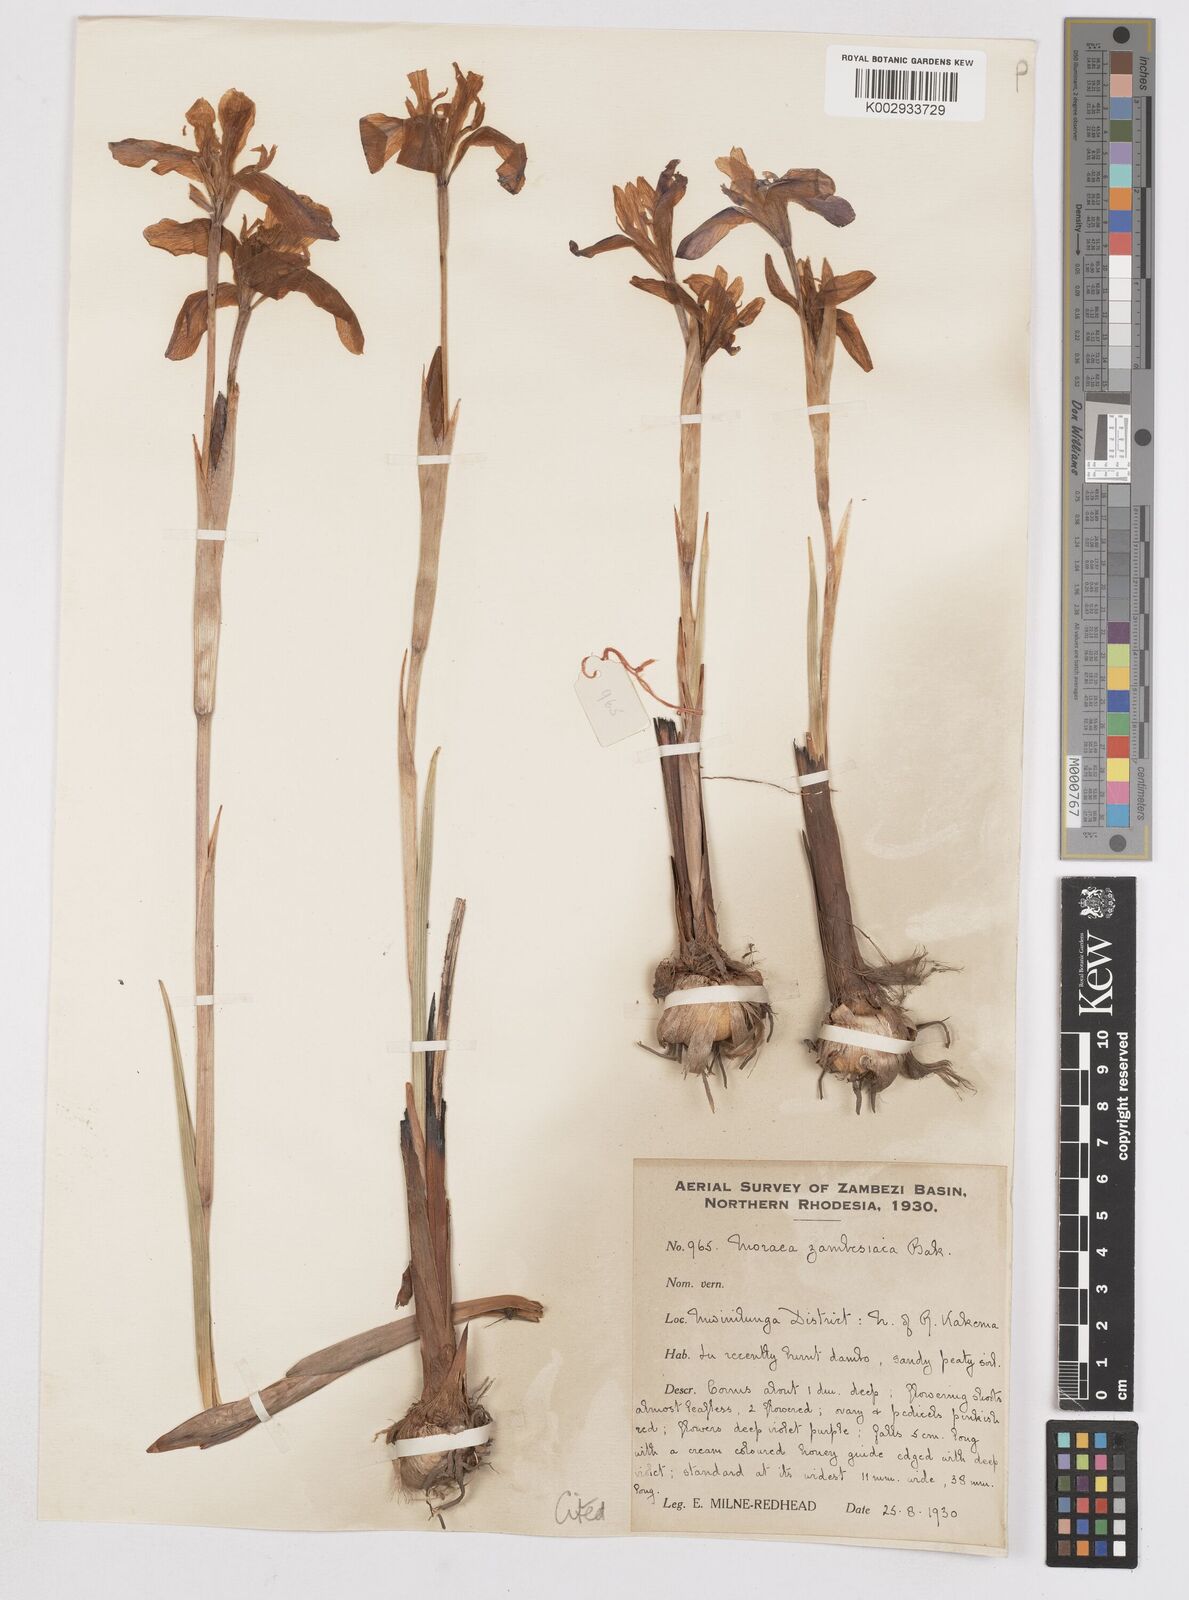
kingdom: Plantae
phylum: Tracheophyta
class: Liliopsida
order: Asparagales
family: Iridaceae
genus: Moraea
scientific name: Moraea schimperi
